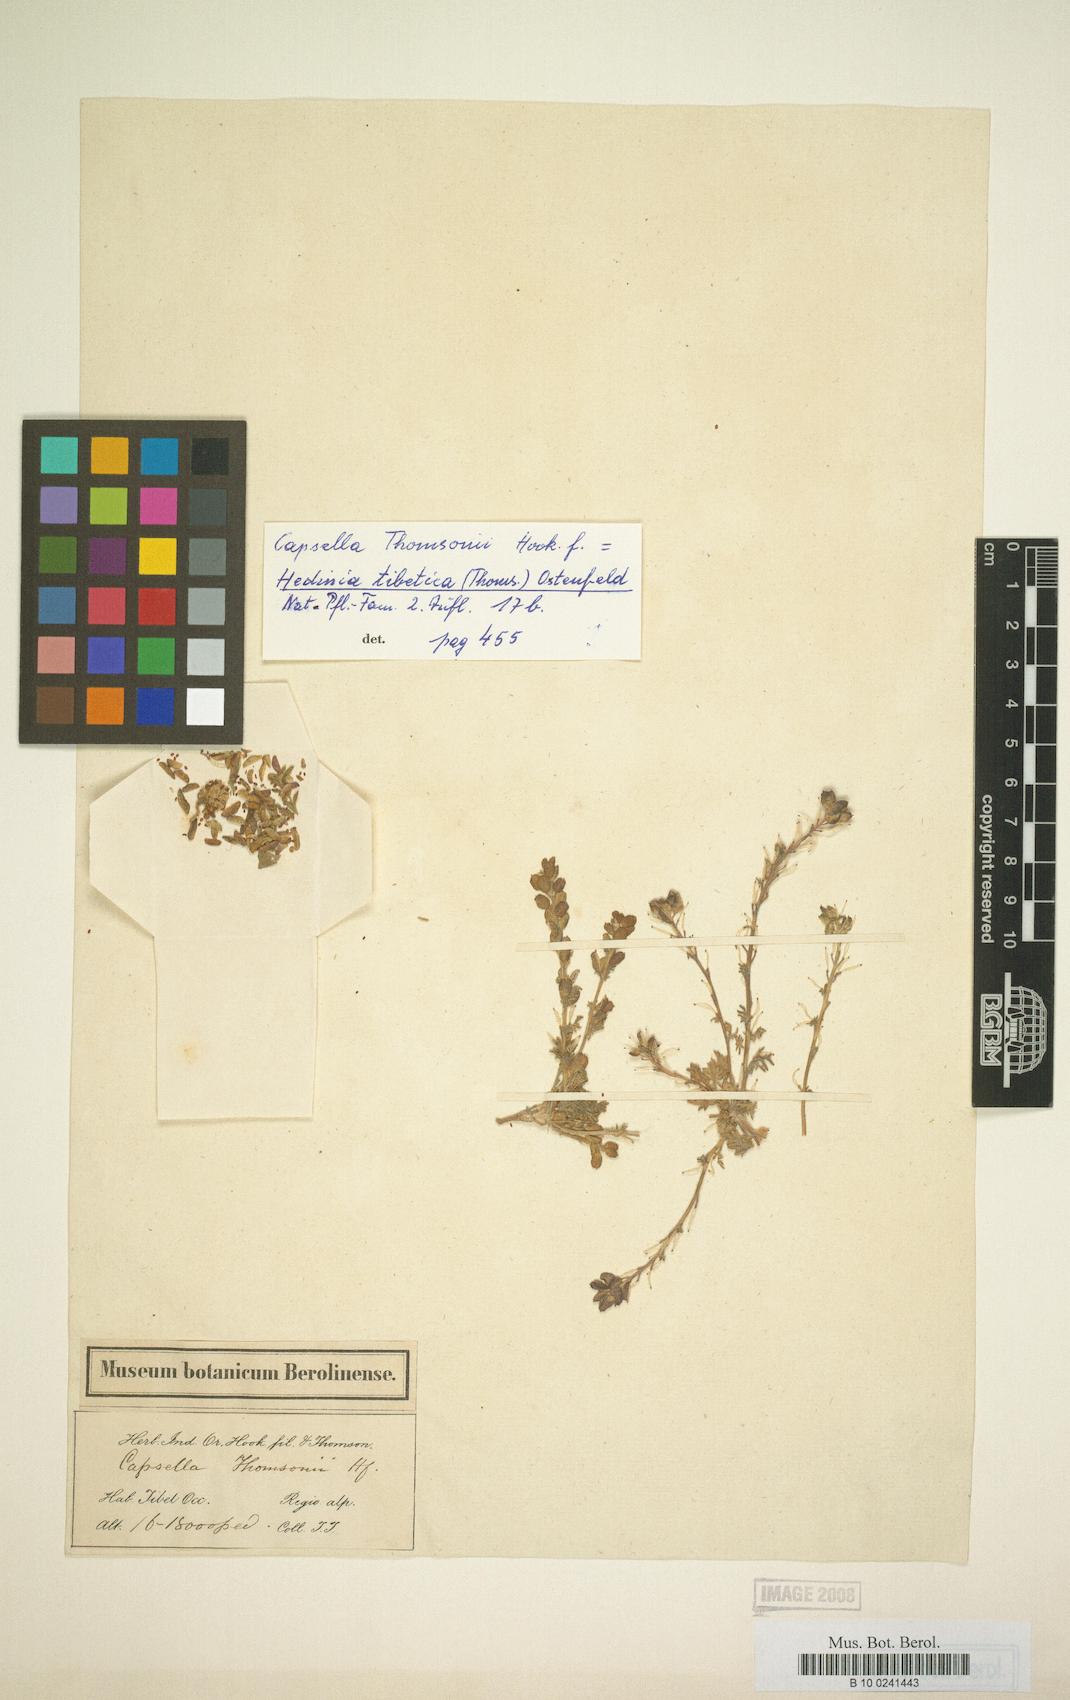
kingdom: Plantae
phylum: Tracheophyta
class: Magnoliopsida
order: Brassicales
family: Brassicaceae
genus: Smelowskia
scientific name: Smelowskia tibetica
